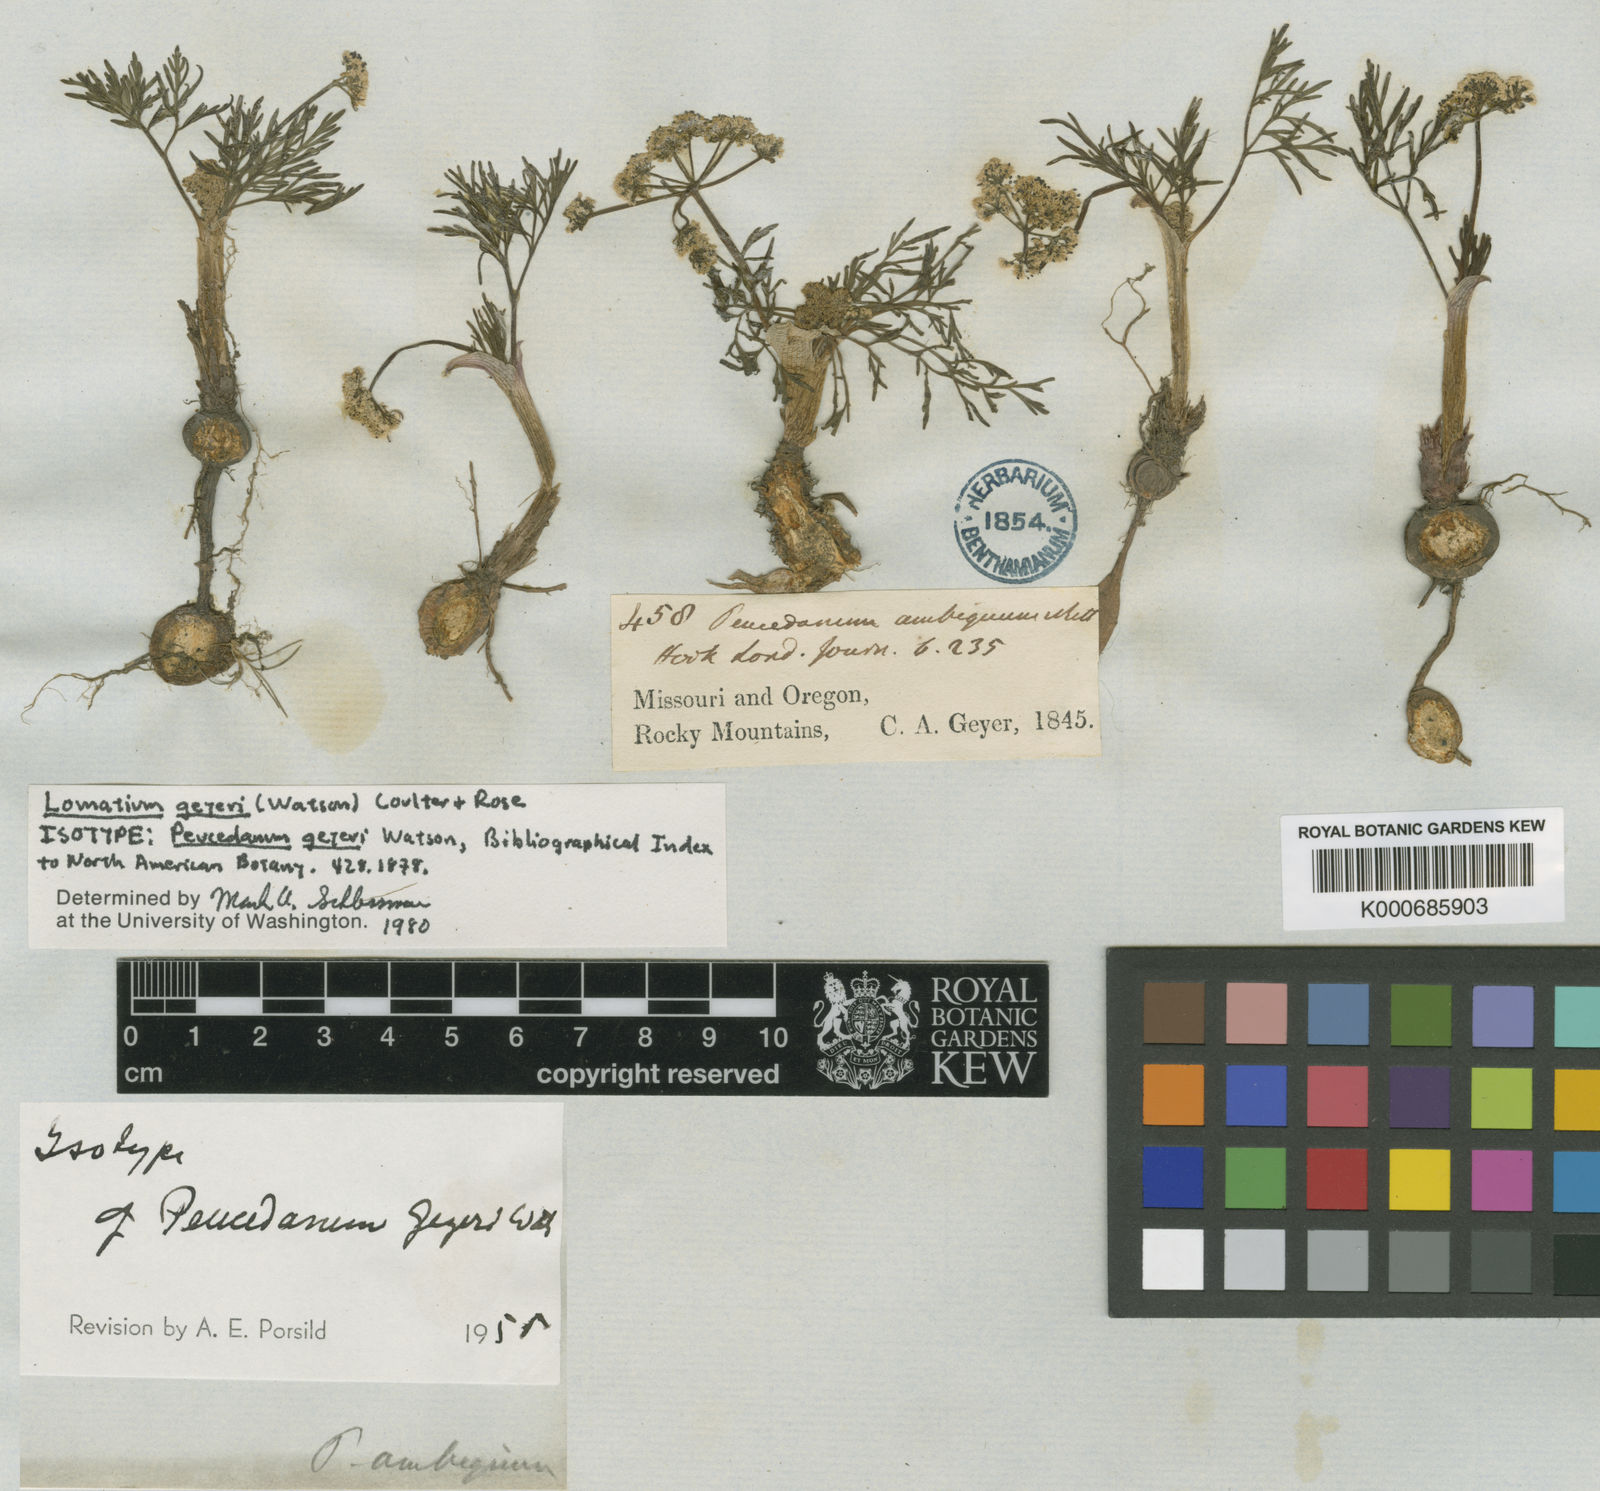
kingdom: Plantae
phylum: Tracheophyta
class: Magnoliopsida
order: Apiales
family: Apiaceae
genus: Lomatium
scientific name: Lomatium geyeri
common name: Geyer's biscuitroot
